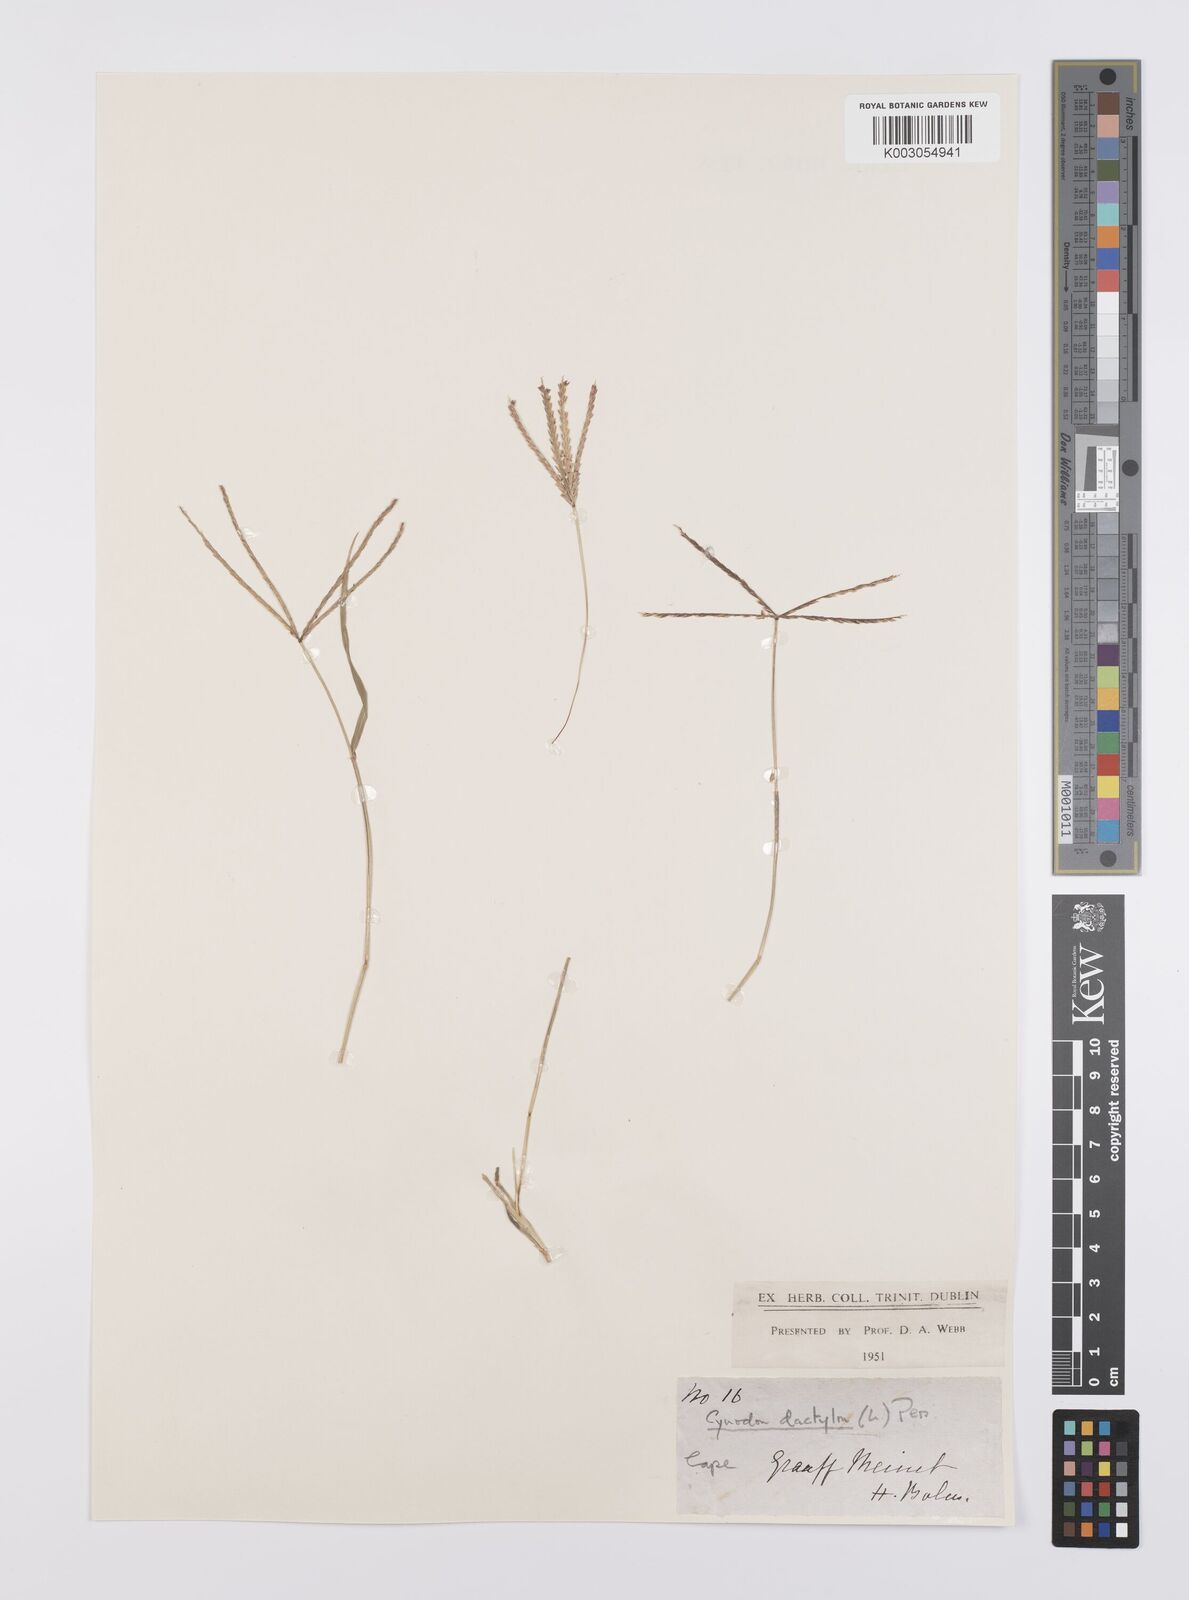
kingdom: Plantae
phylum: Tracheophyta
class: Liliopsida
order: Poales
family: Poaceae
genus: Cynodon
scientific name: Cynodon dactylon
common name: Bermuda grass
